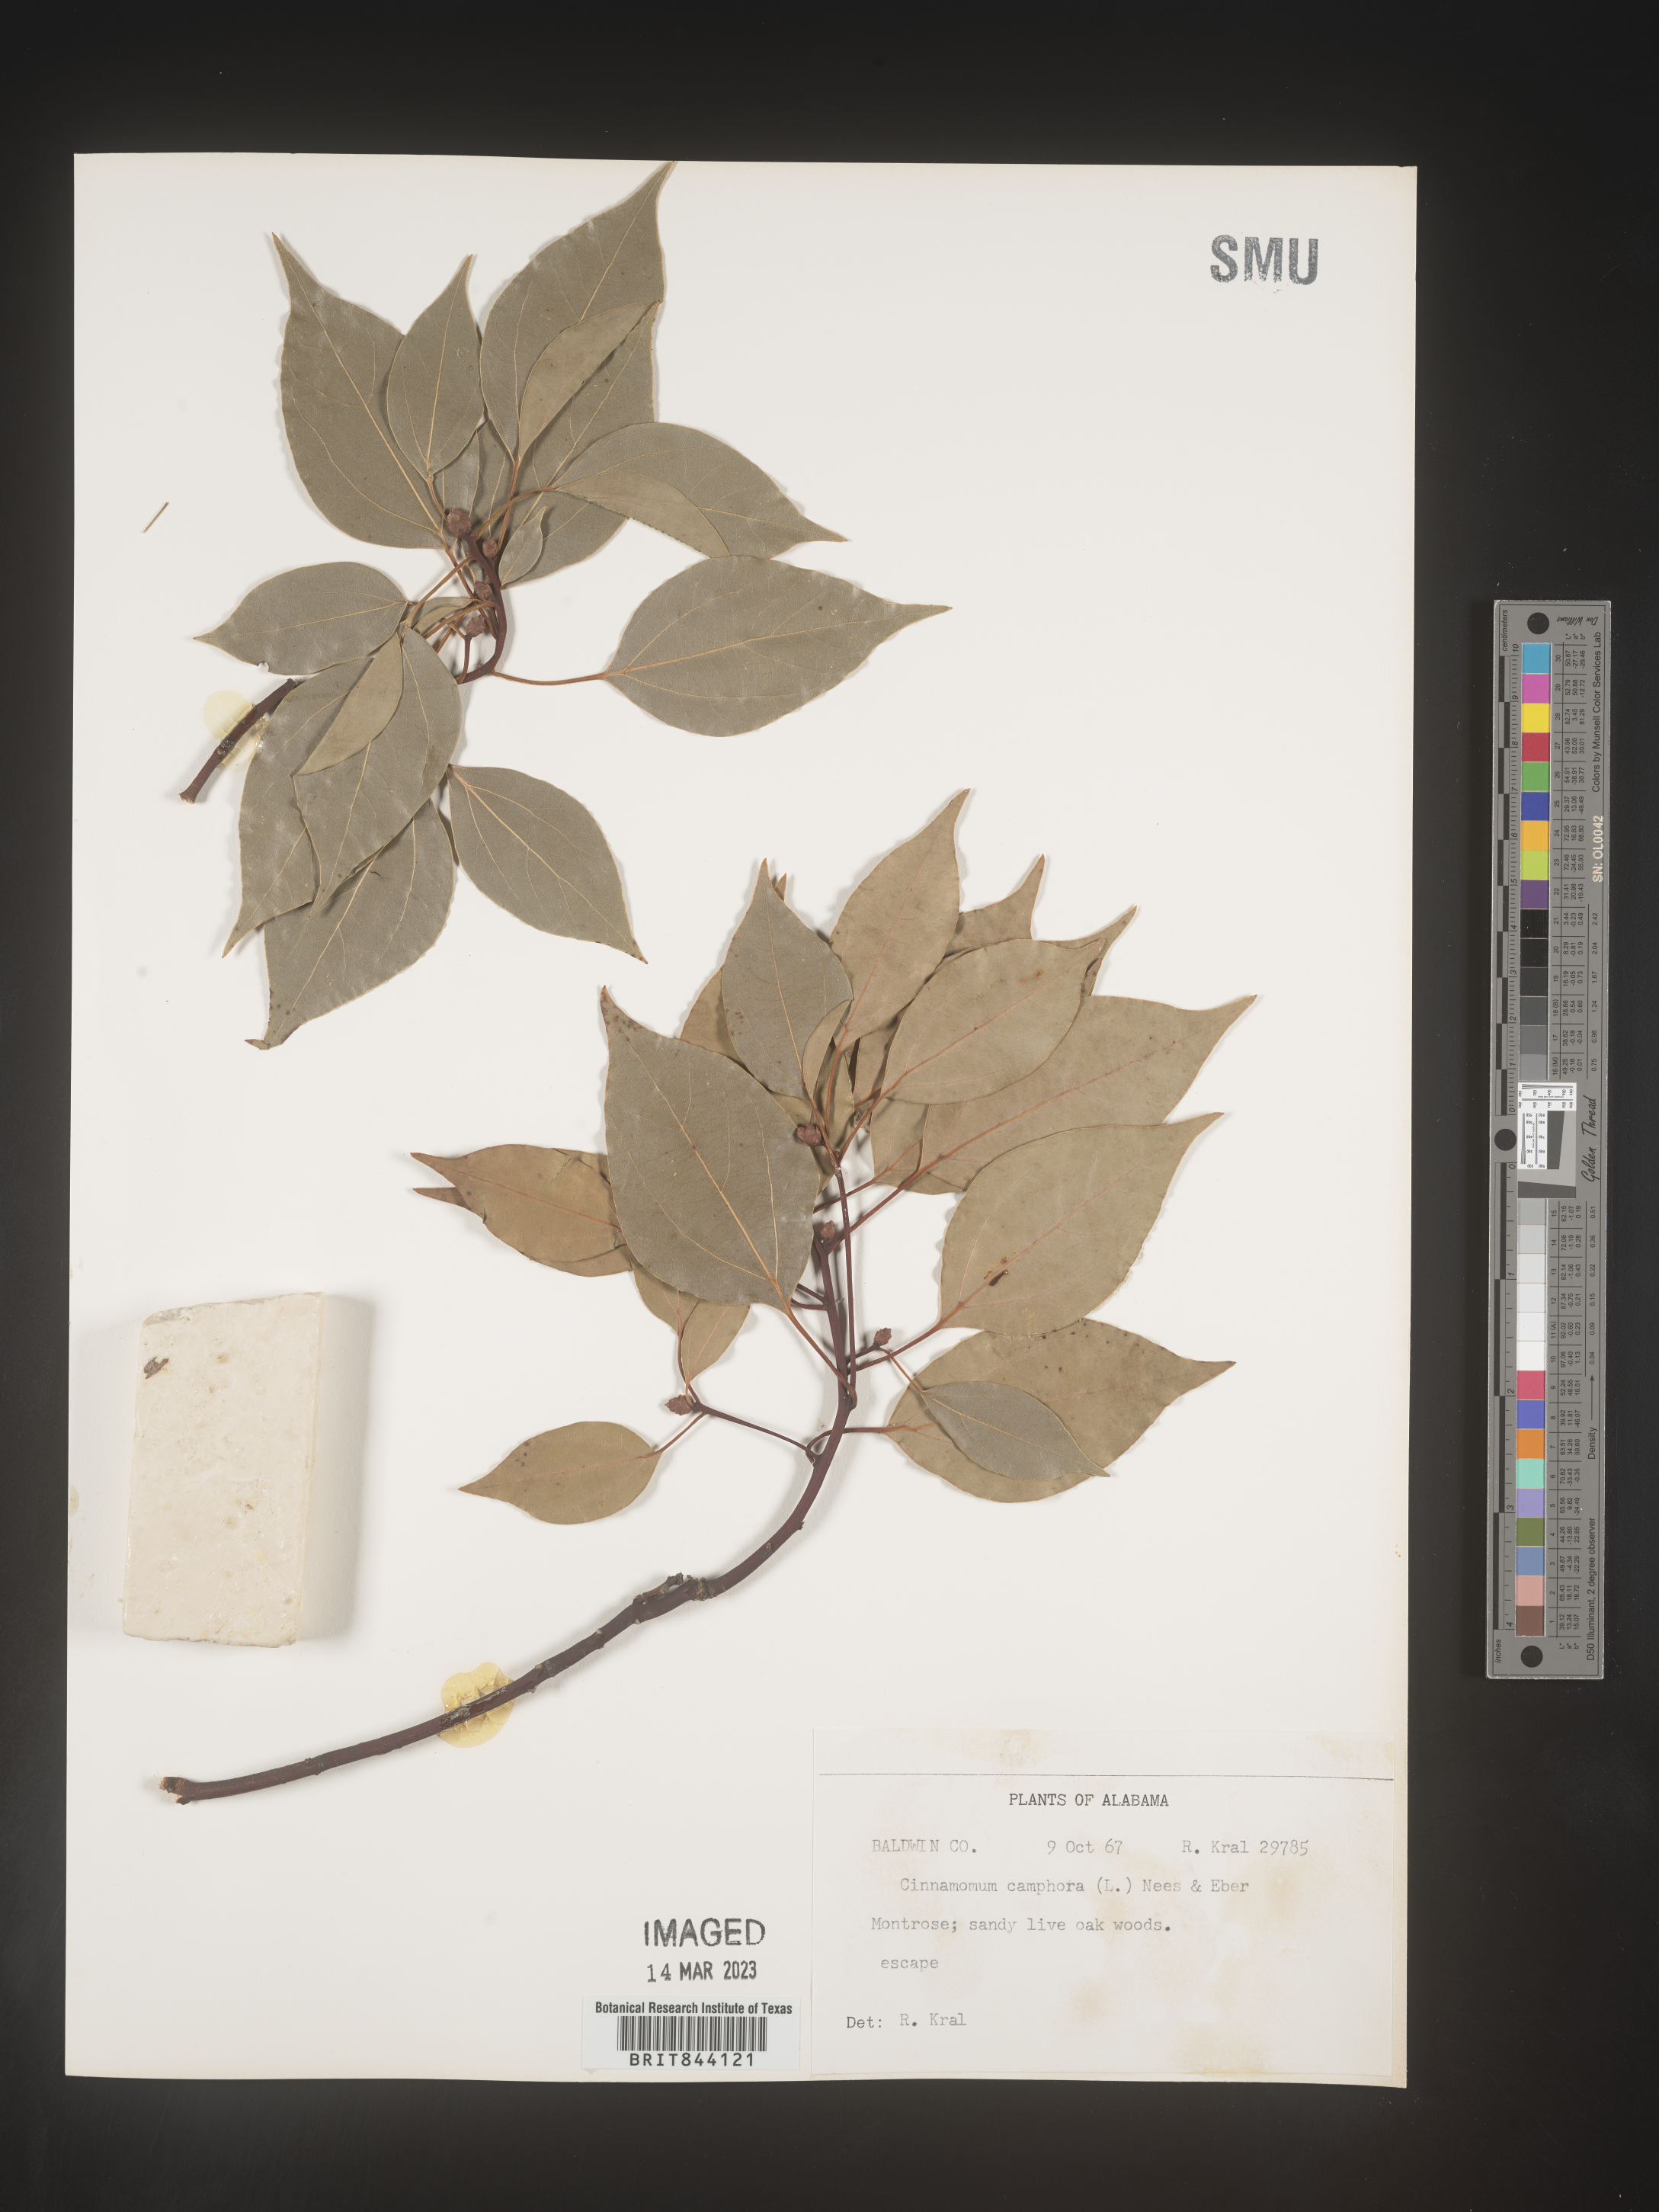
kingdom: Plantae
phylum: Tracheophyta
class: Magnoliopsida
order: Laurales
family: Lauraceae
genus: Cinnamomum
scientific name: Cinnamomum
